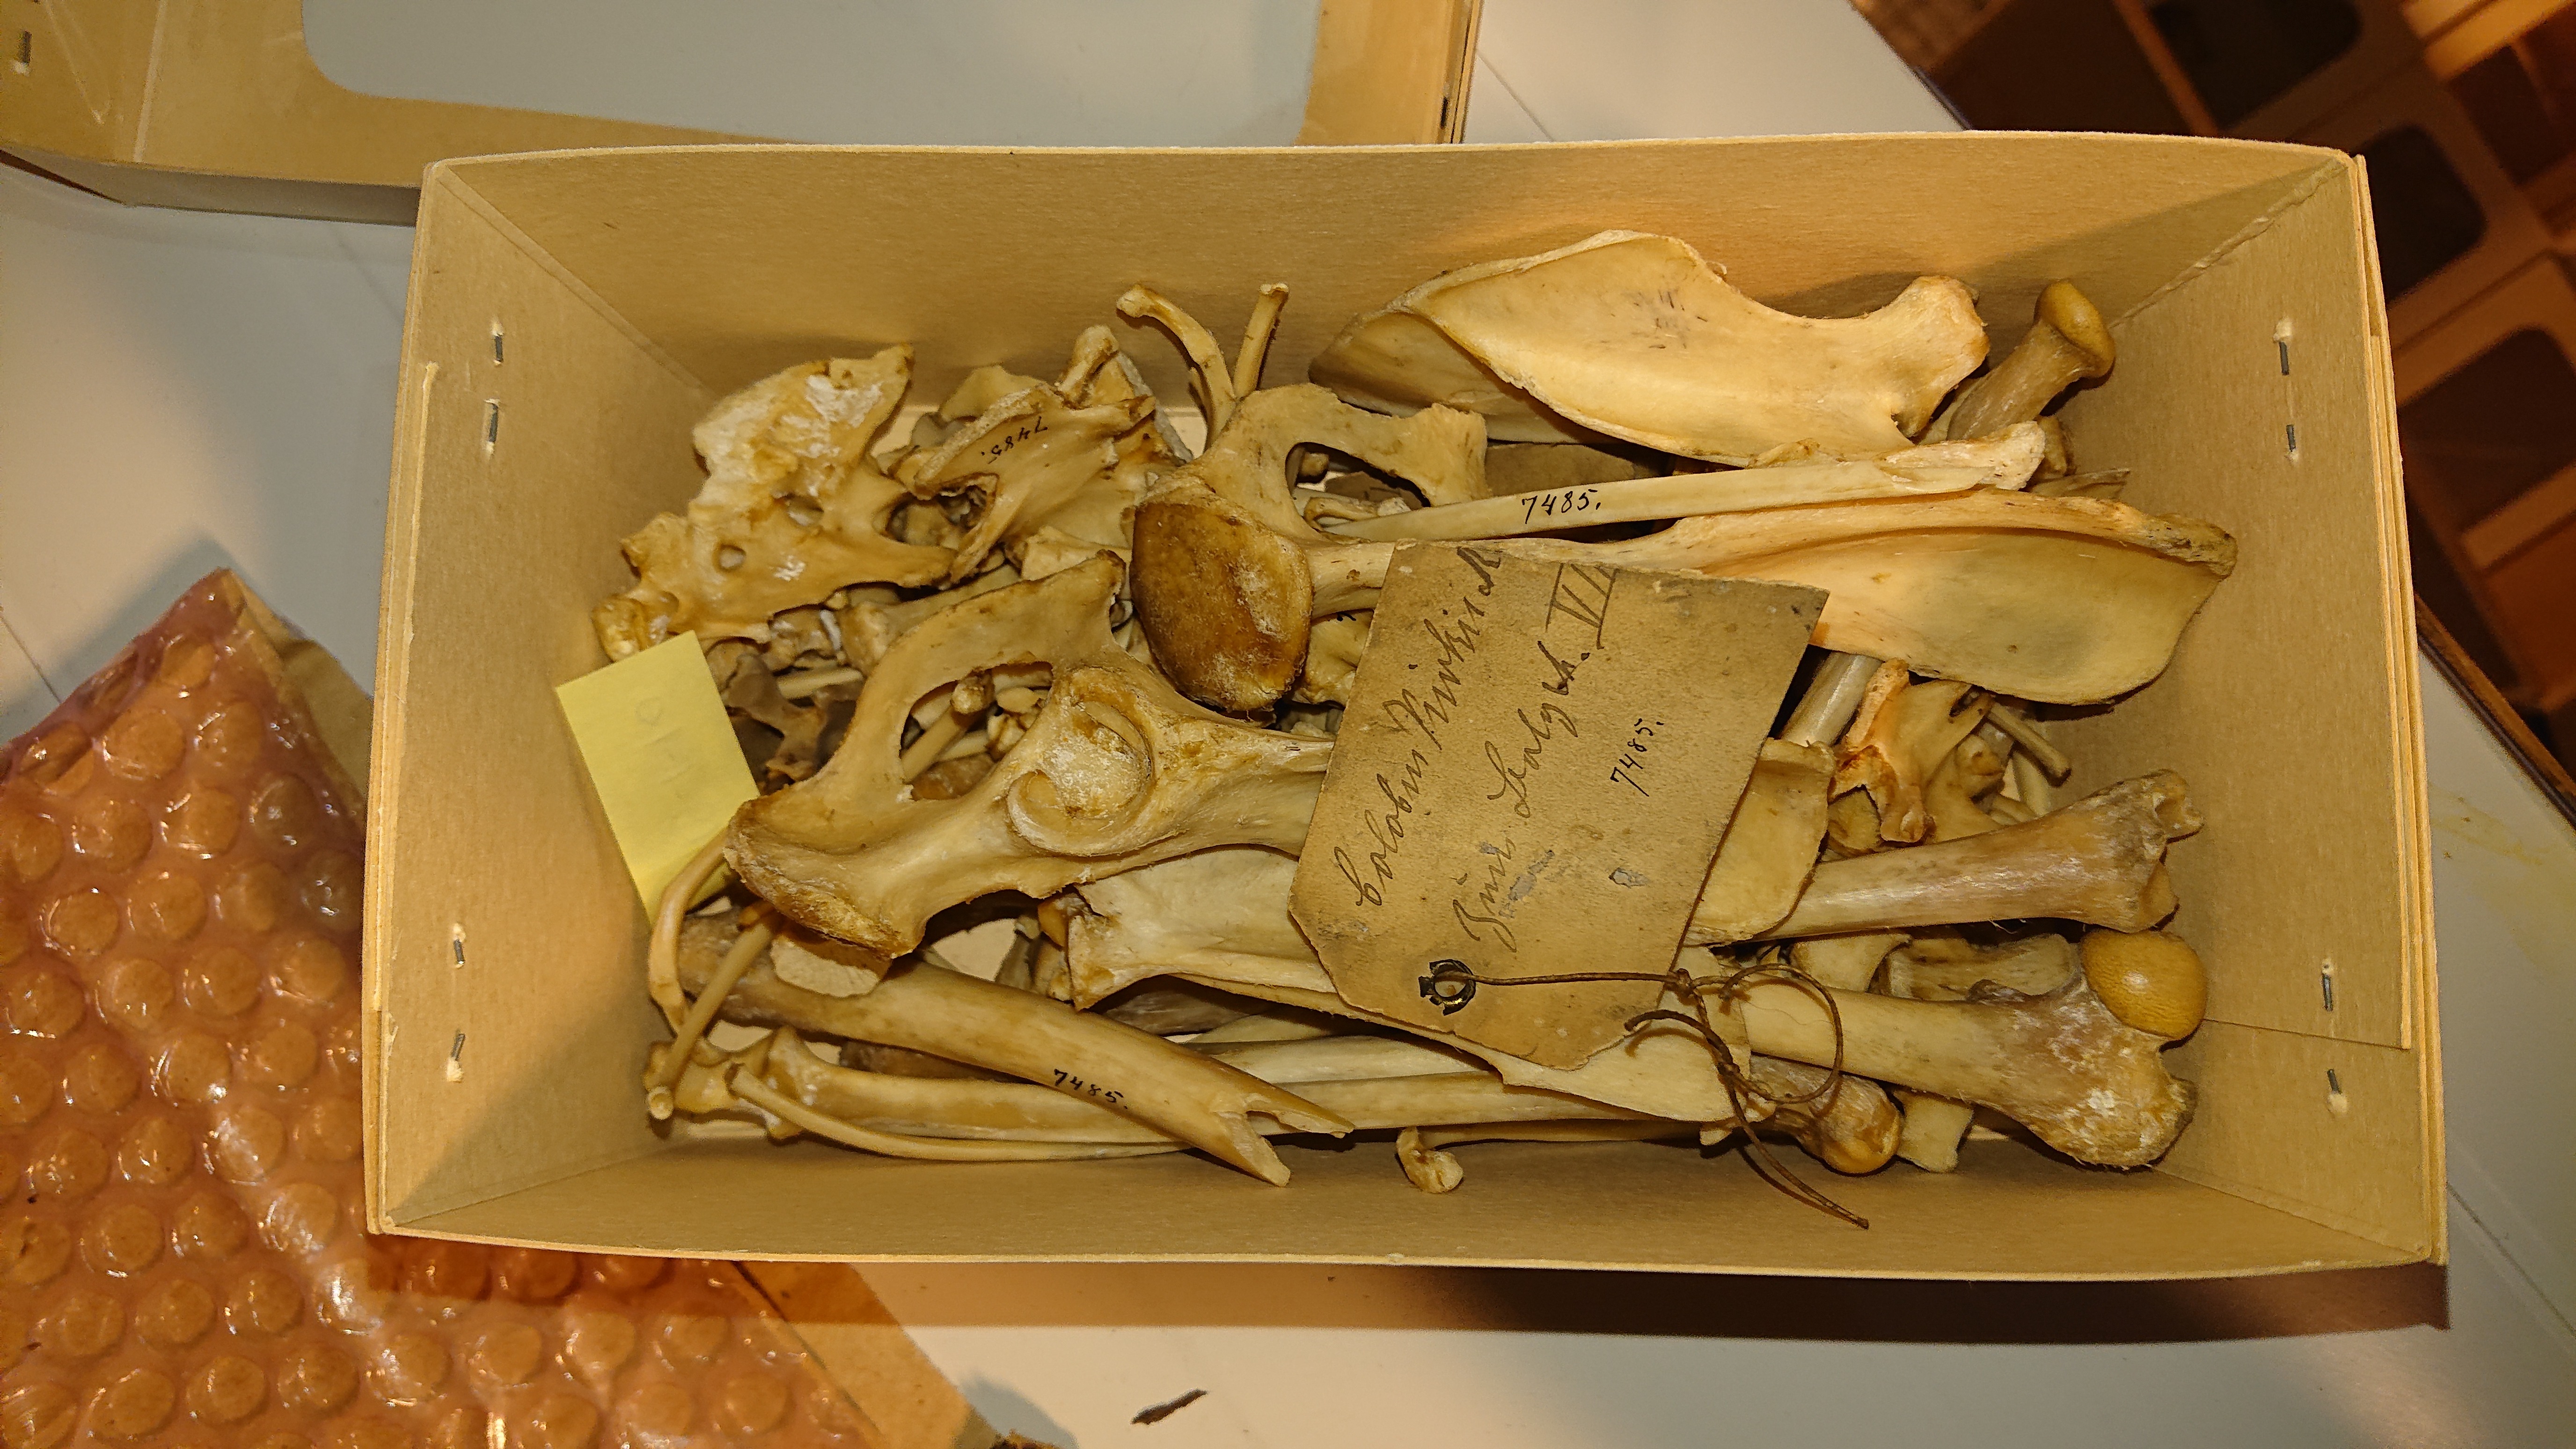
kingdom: Animalia
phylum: Chordata
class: Mammalia
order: Primates
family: Cercopithecidae
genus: Piliocolobus
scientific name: Piliocolobus kirkii
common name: Zanzibar red colobus
